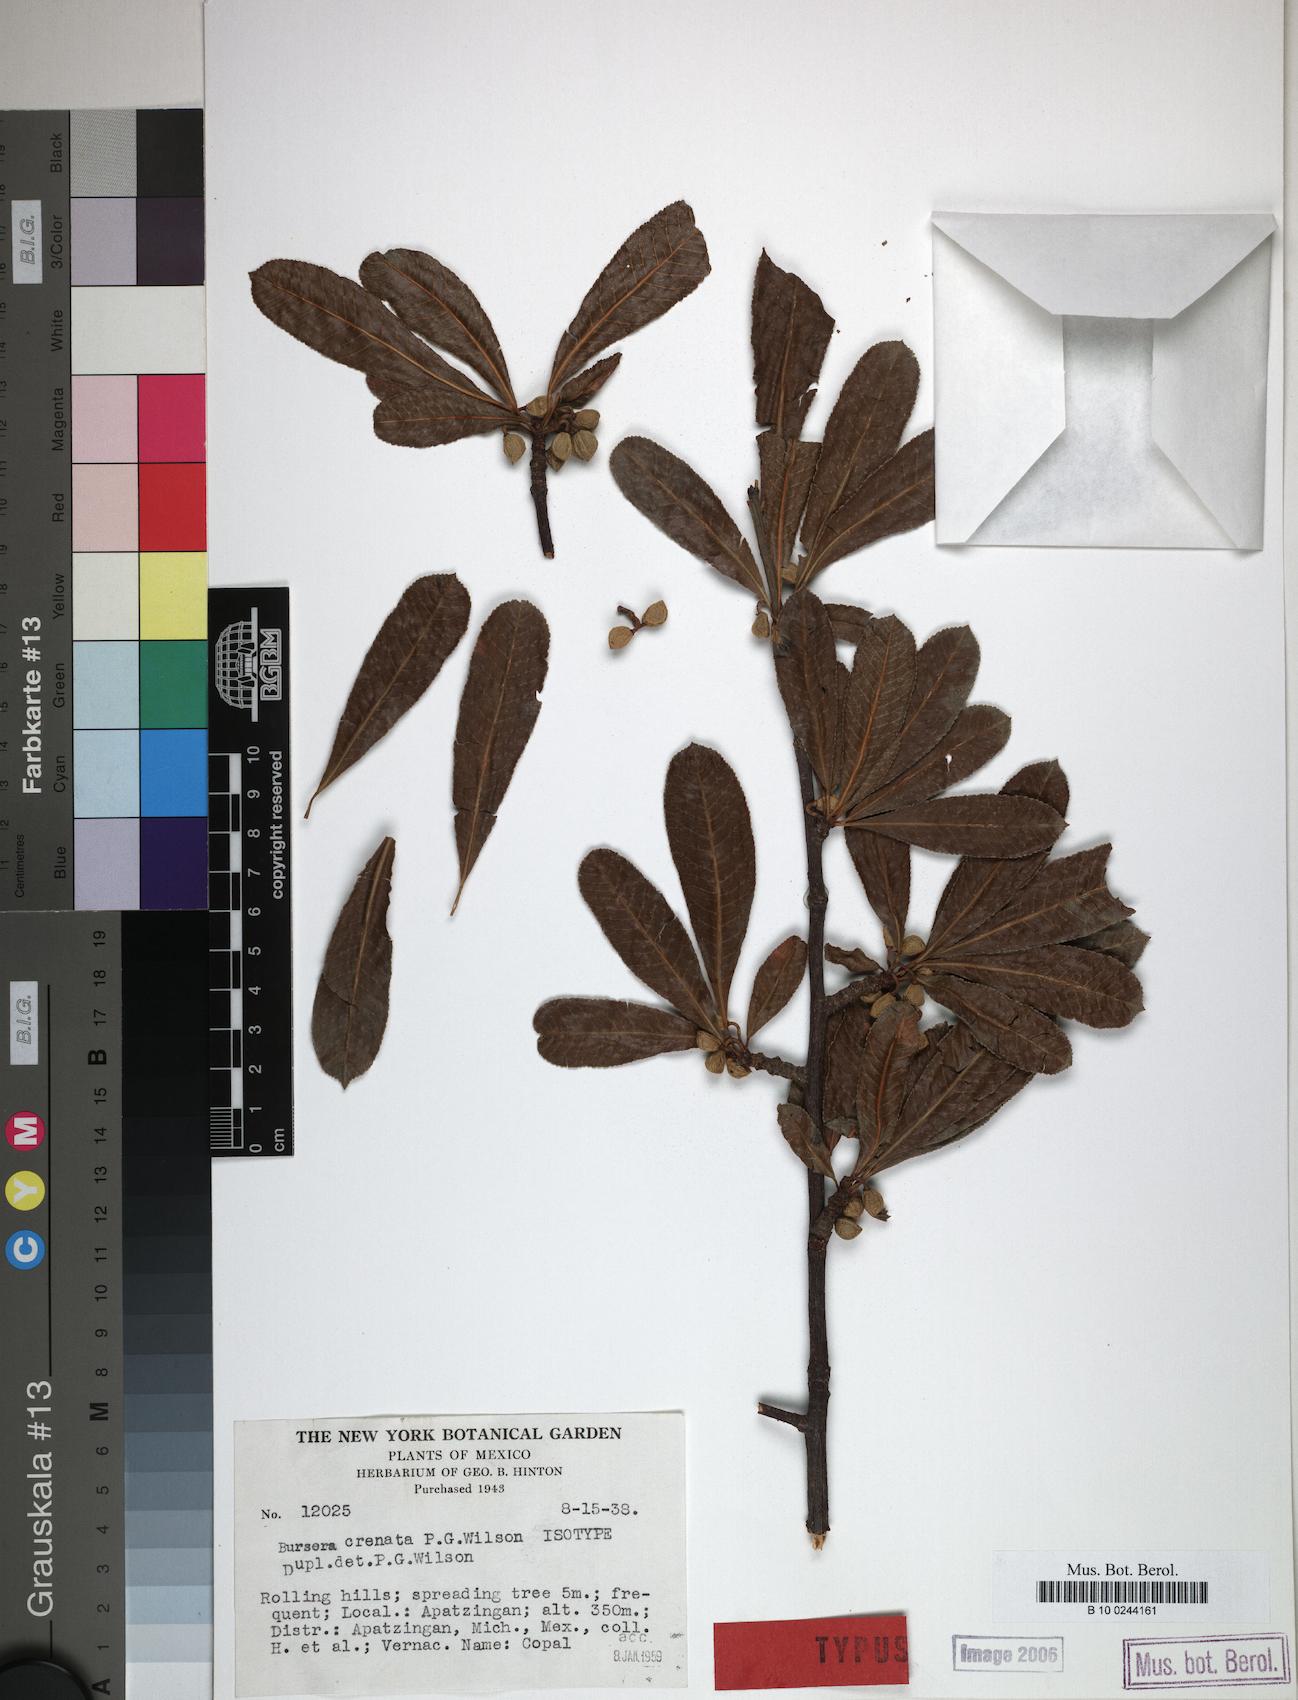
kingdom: Plantae
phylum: Tracheophyta
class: Magnoliopsida
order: Sapindales
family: Burseraceae
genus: Bursera
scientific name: Bursera crenata
